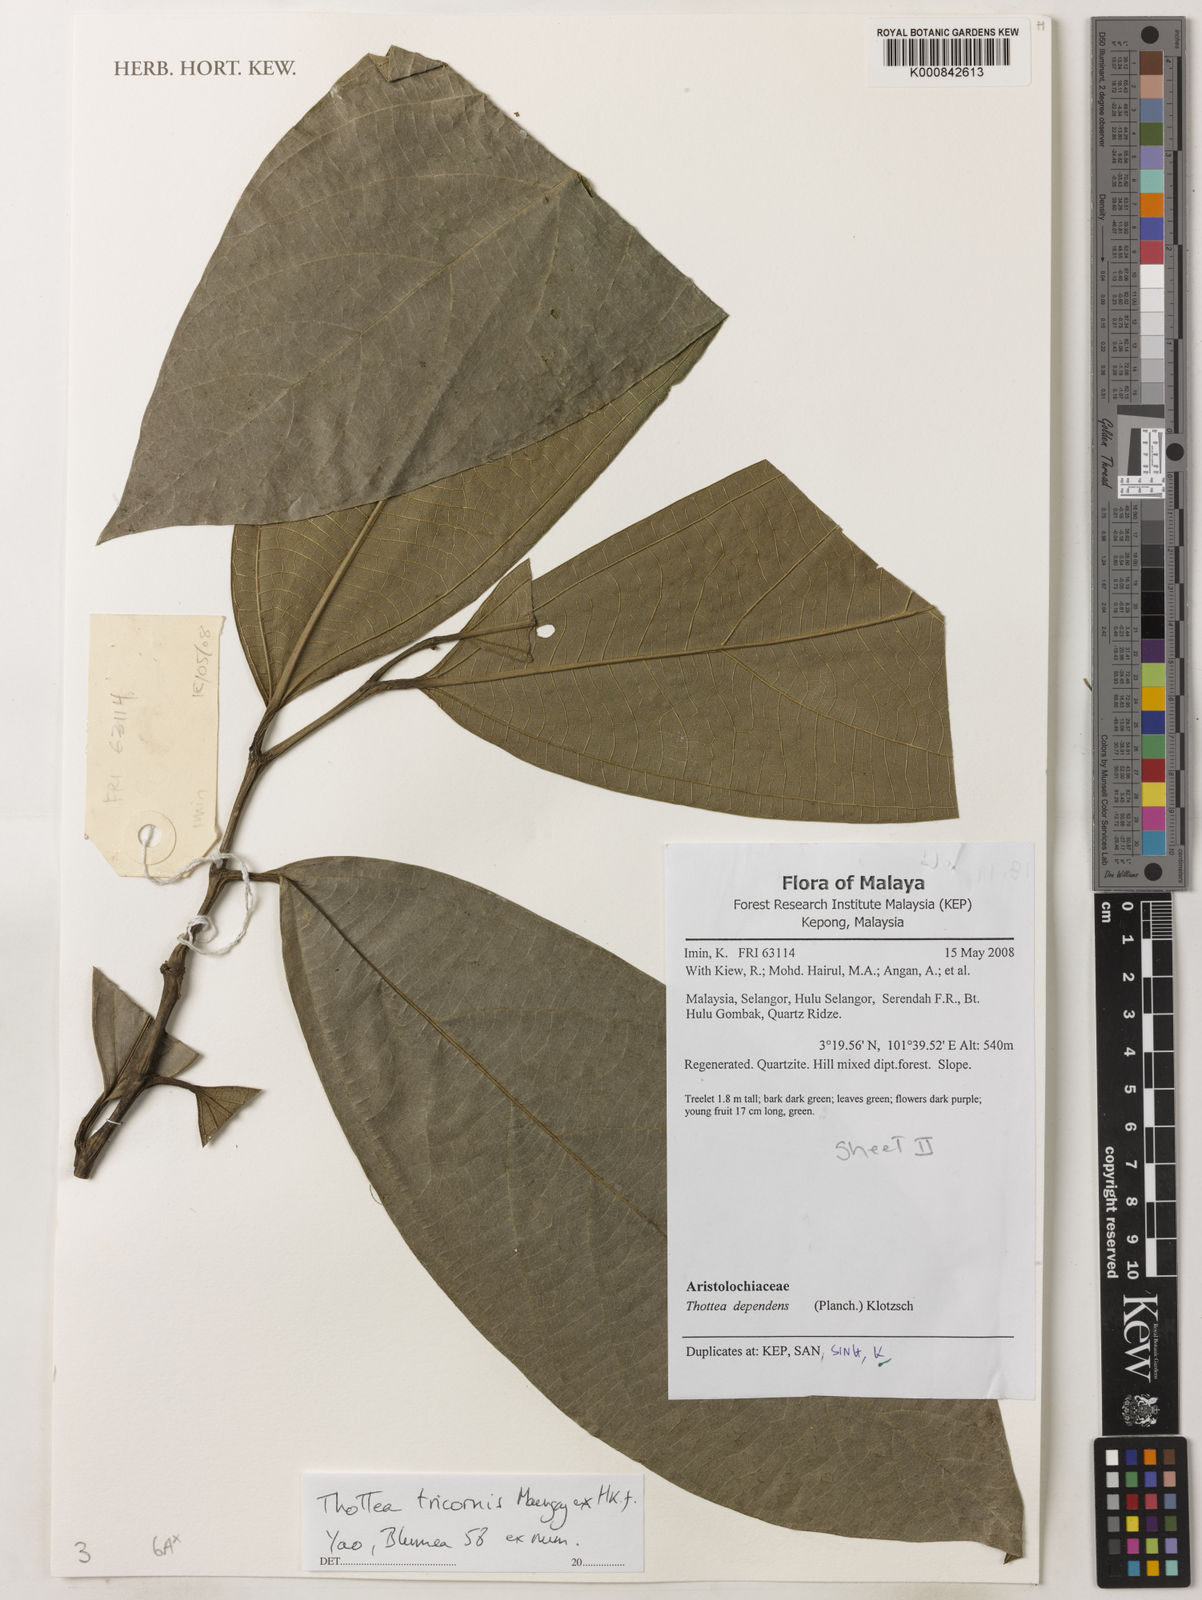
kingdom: Plantae
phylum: Tracheophyta
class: Magnoliopsida
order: Piperales
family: Aristolochiaceae
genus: Thottea
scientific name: Thottea tricornis
